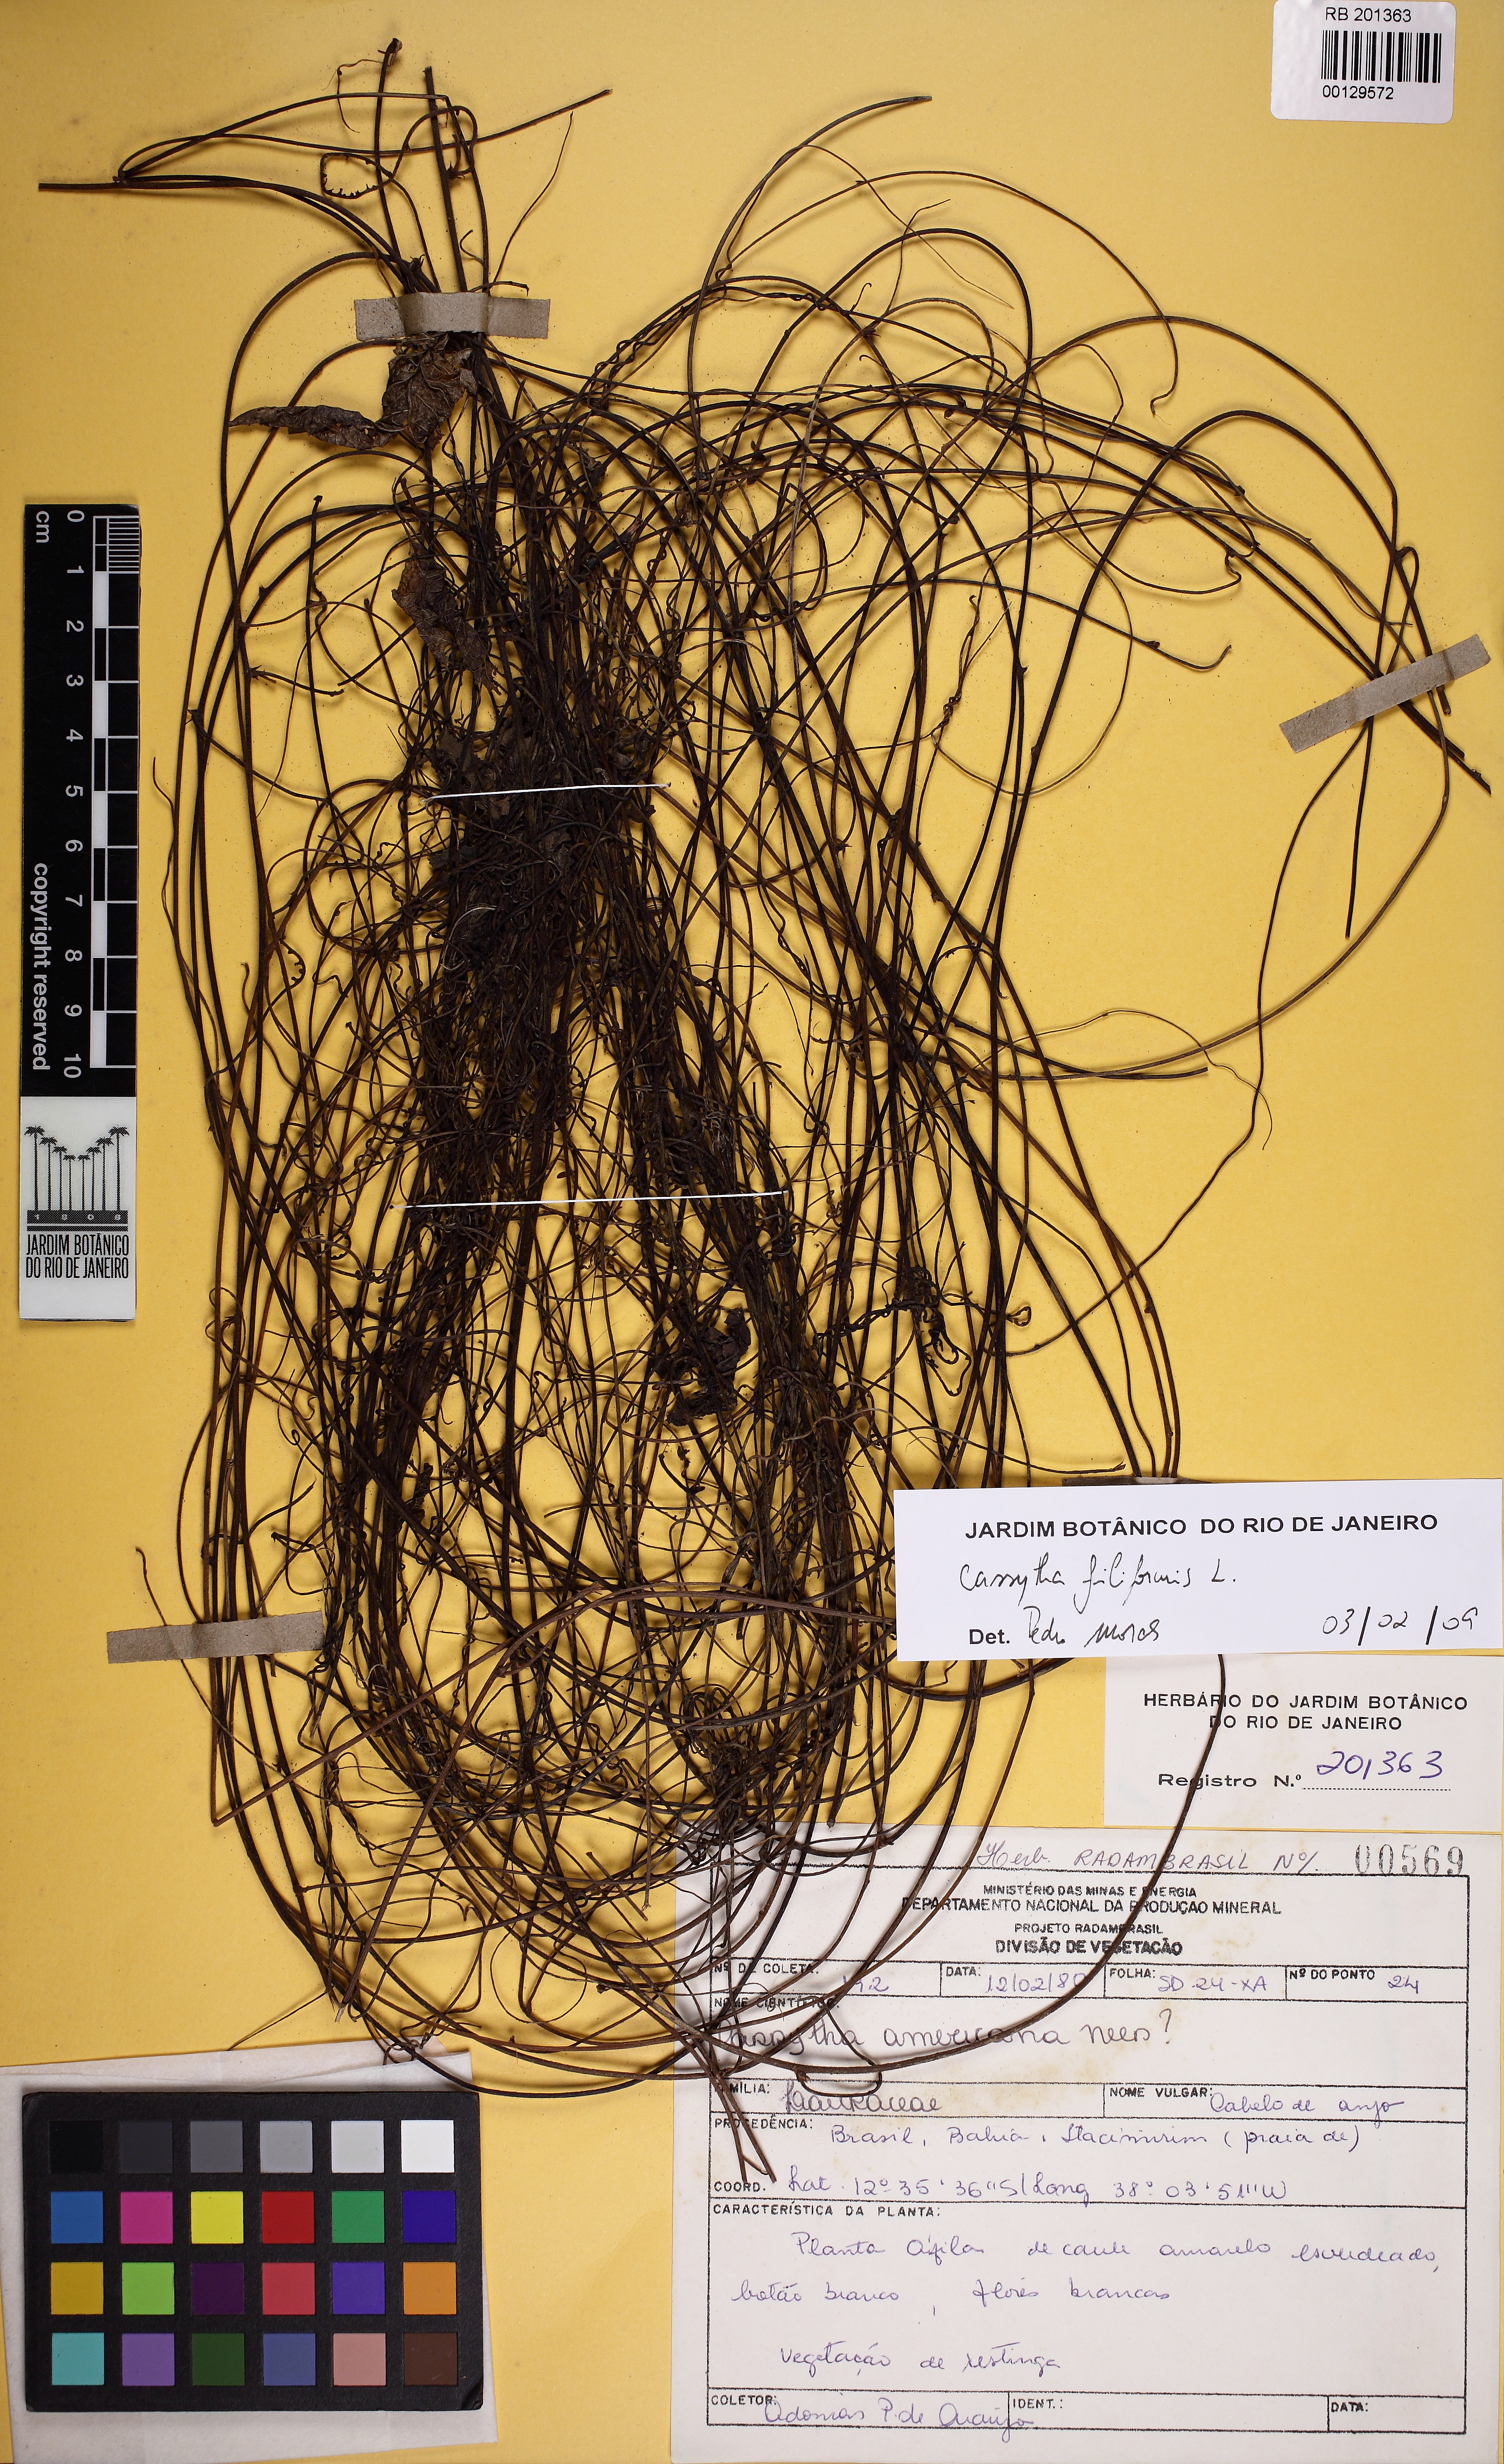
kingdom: Plantae
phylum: Tracheophyta
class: Magnoliopsida
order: Laurales
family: Lauraceae
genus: Cassytha
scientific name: Cassytha filiformis
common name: Dodder-laurel
